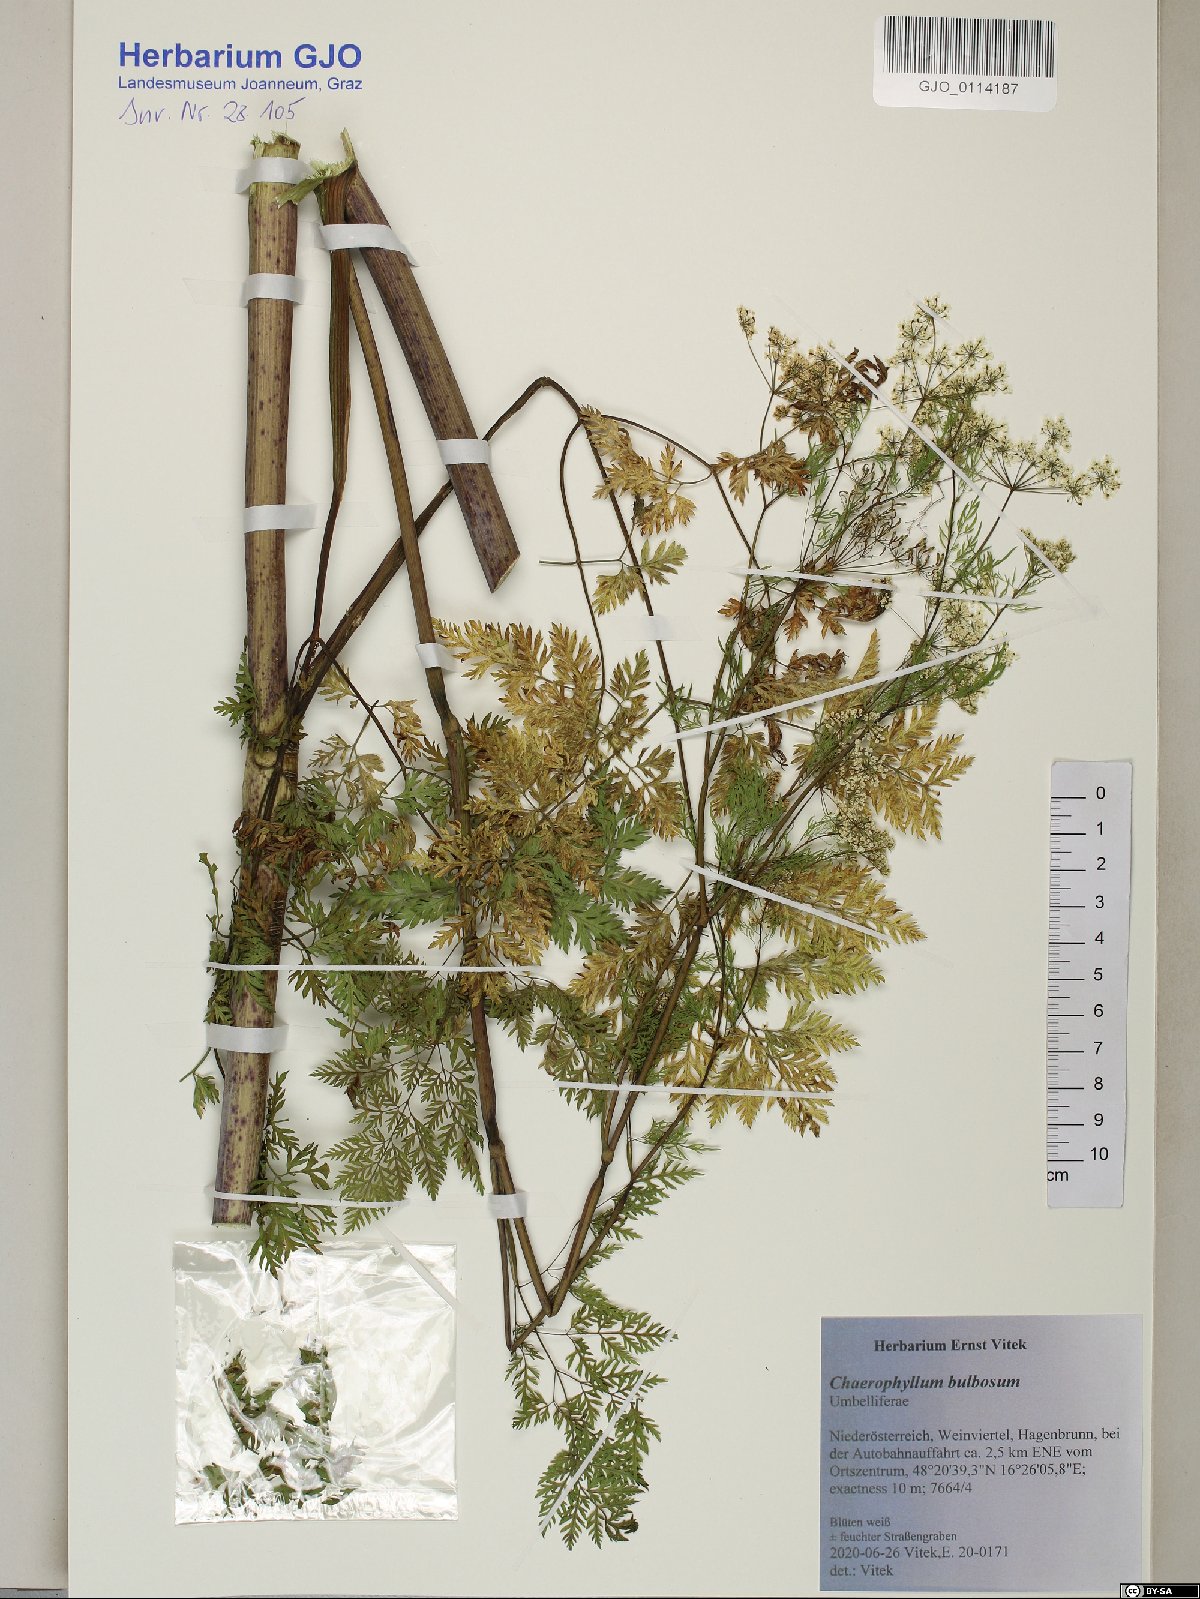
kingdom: Plantae
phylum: Tracheophyta
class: Magnoliopsida
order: Apiales
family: Apiaceae
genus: Chaerophyllum
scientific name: Chaerophyllum bulbosum
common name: Bulbous chervil
